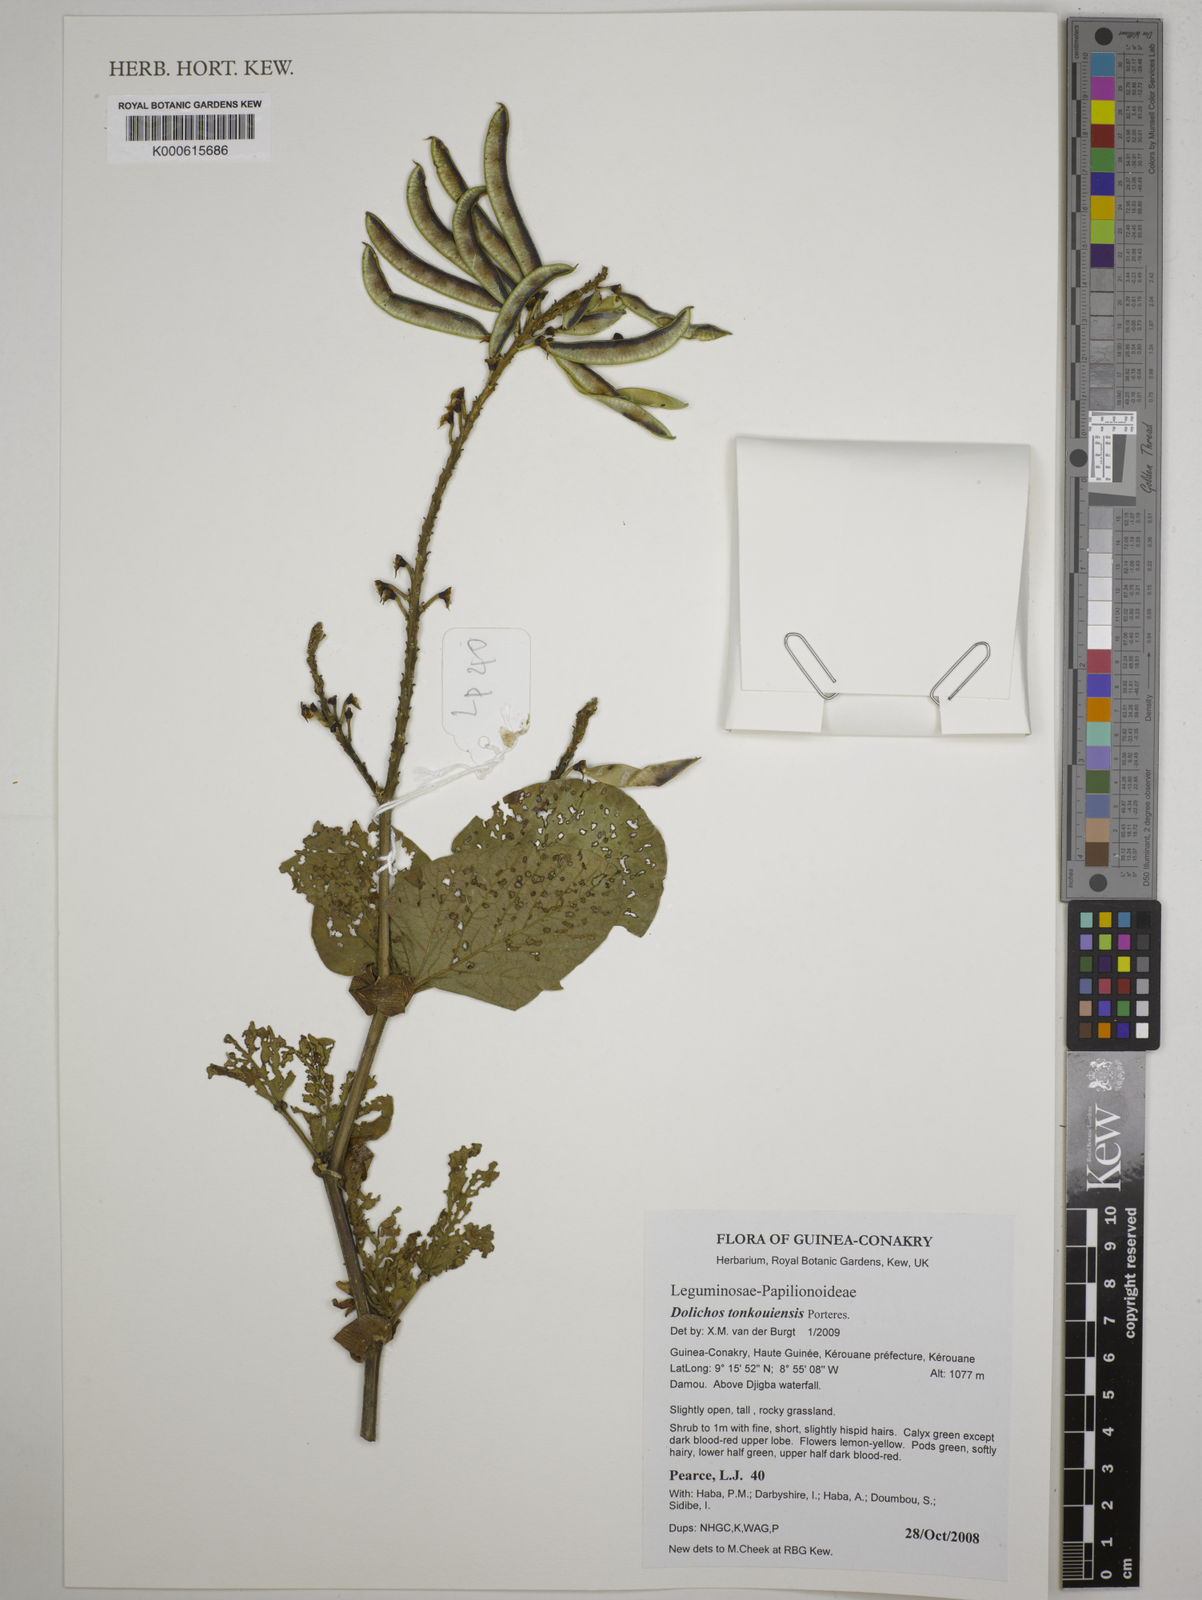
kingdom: Plantae
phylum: Tracheophyta
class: Magnoliopsida
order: Fabales
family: Fabaceae
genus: Dolichos
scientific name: Dolichos tonkouiensis
